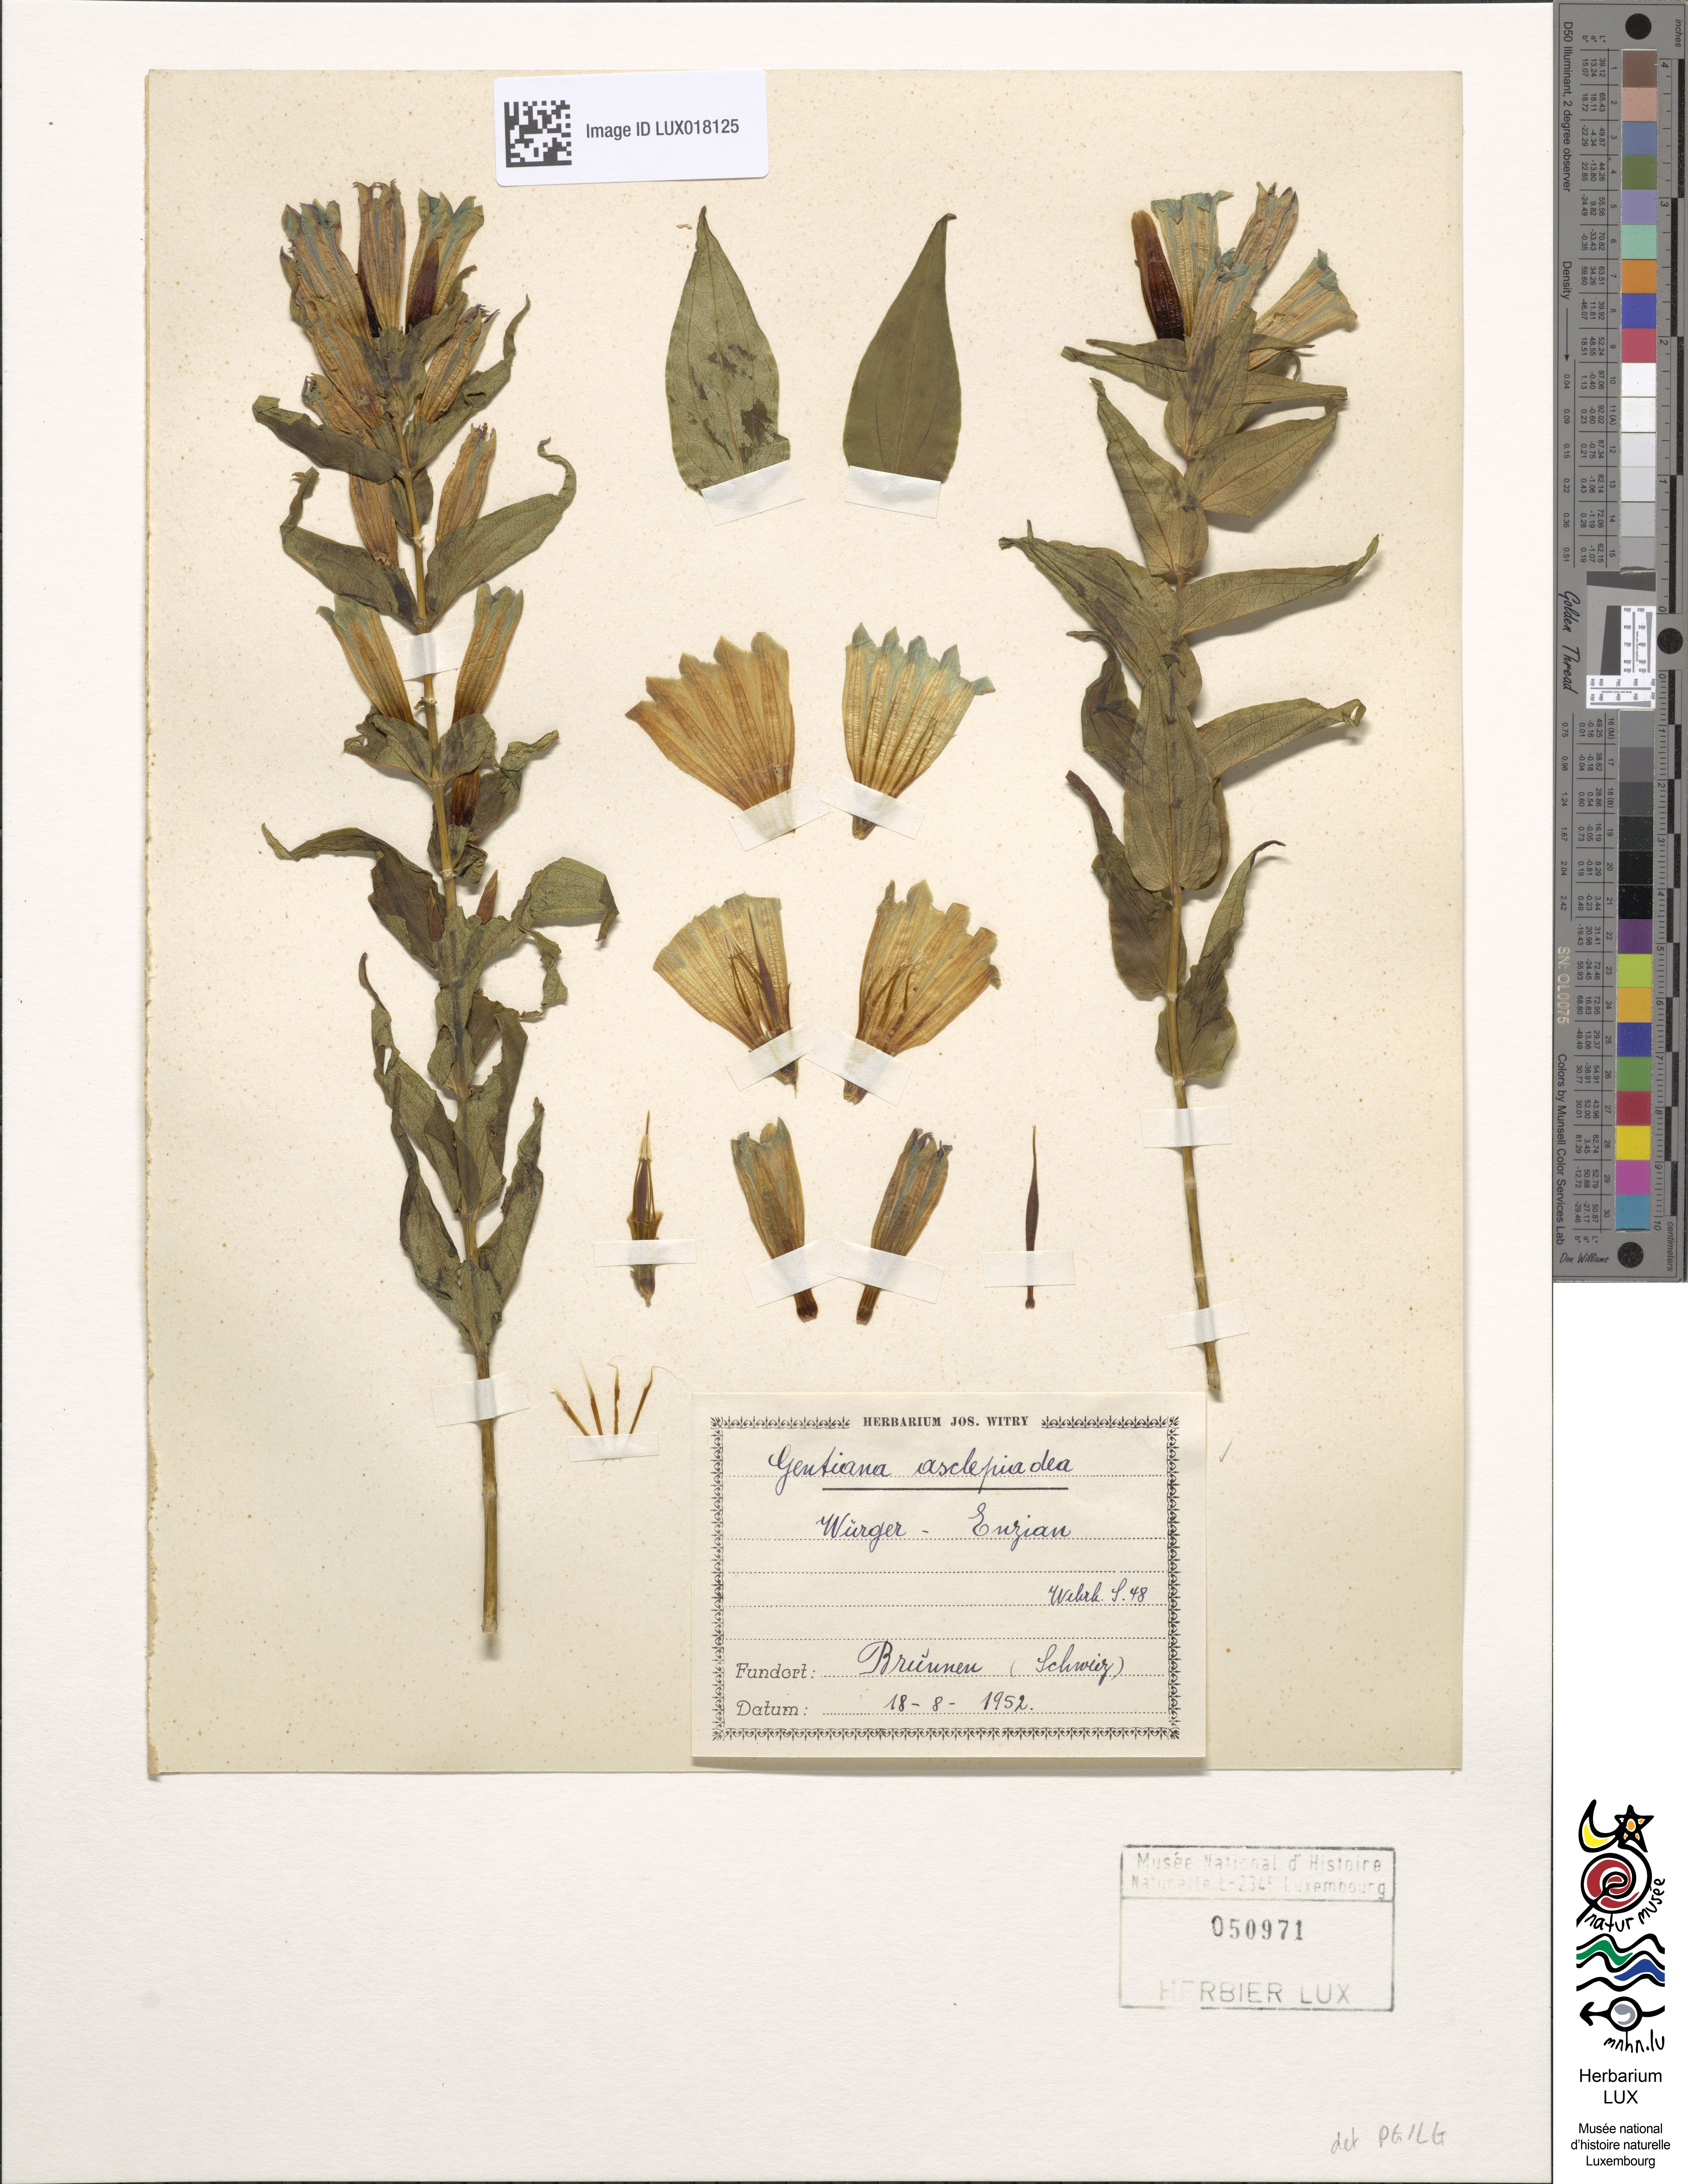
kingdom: Plantae
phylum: Tracheophyta
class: Magnoliopsida
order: Gentianales
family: Gentianaceae
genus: Gentiana
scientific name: Gentiana asclepiadea
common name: Willow gentian
